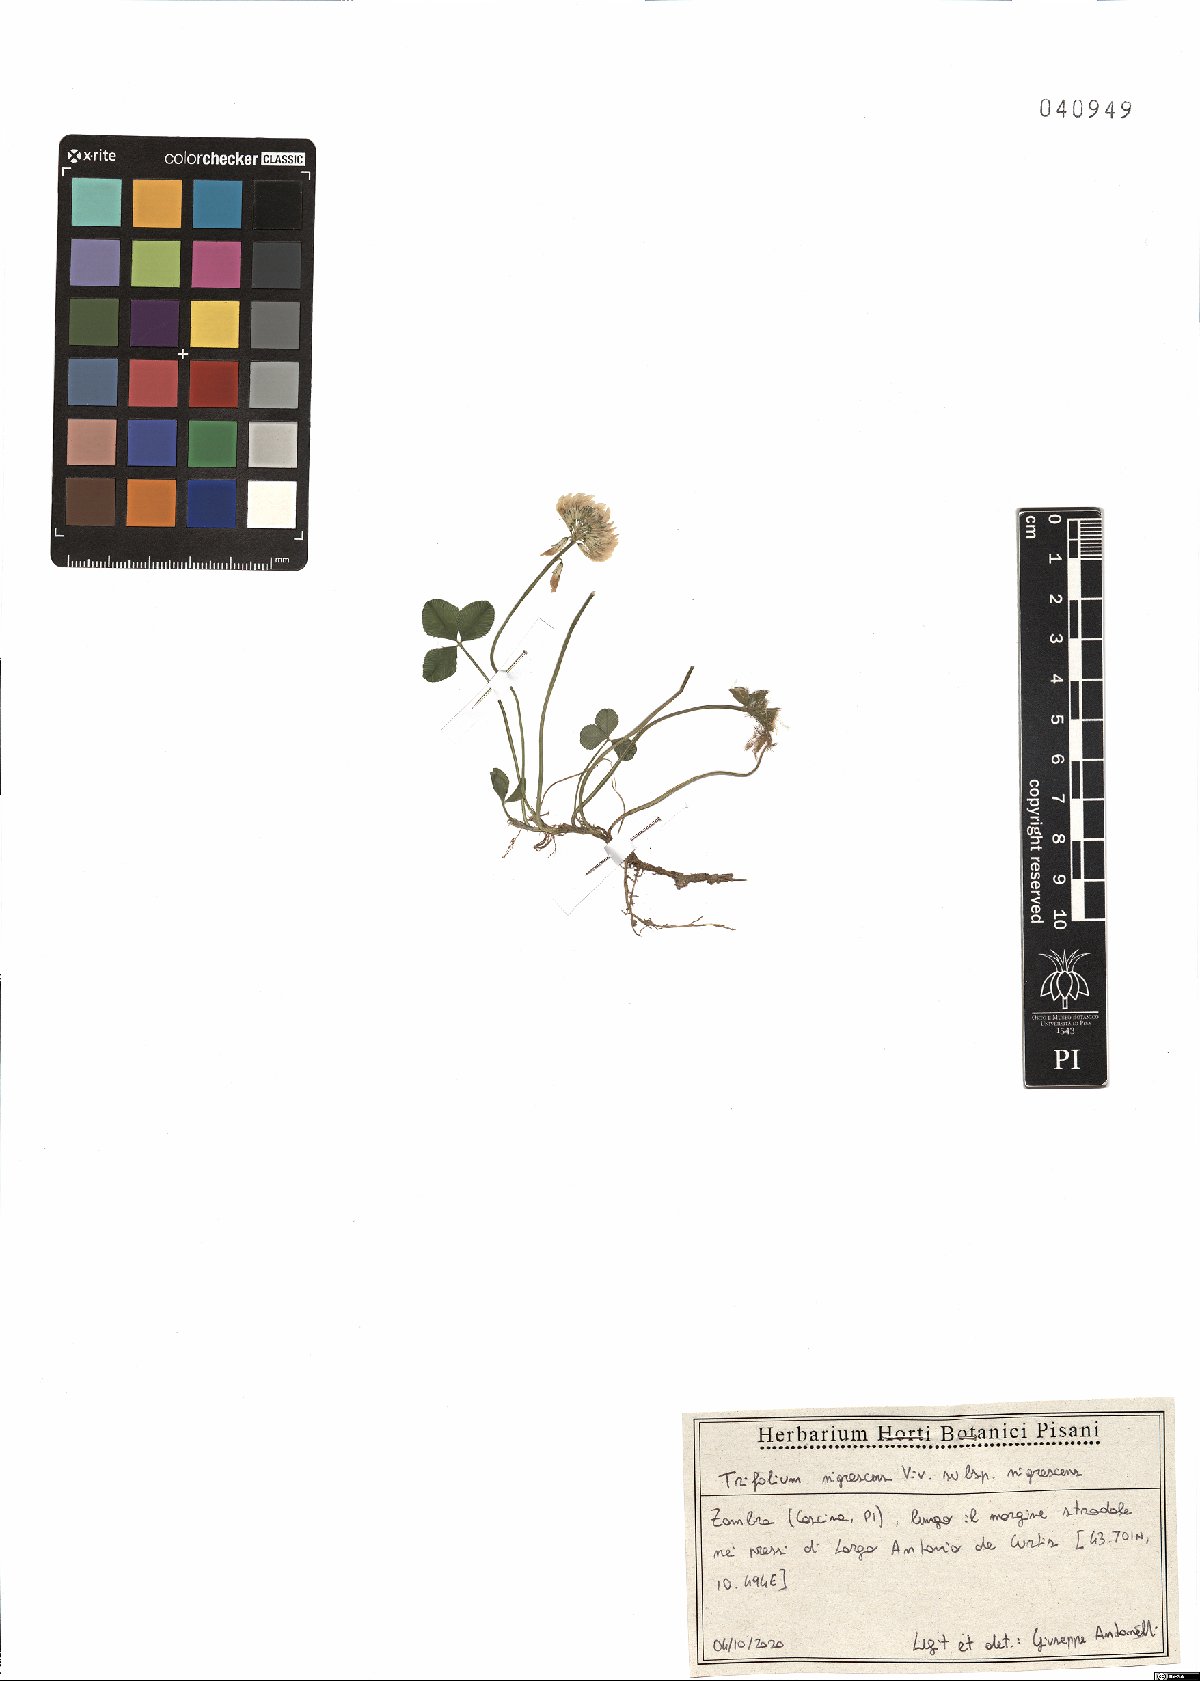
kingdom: Plantae
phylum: Tracheophyta
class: Magnoliopsida
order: Fabales
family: Fabaceae
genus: Trifolium
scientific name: Trifolium nigrescens
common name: Small white clover
